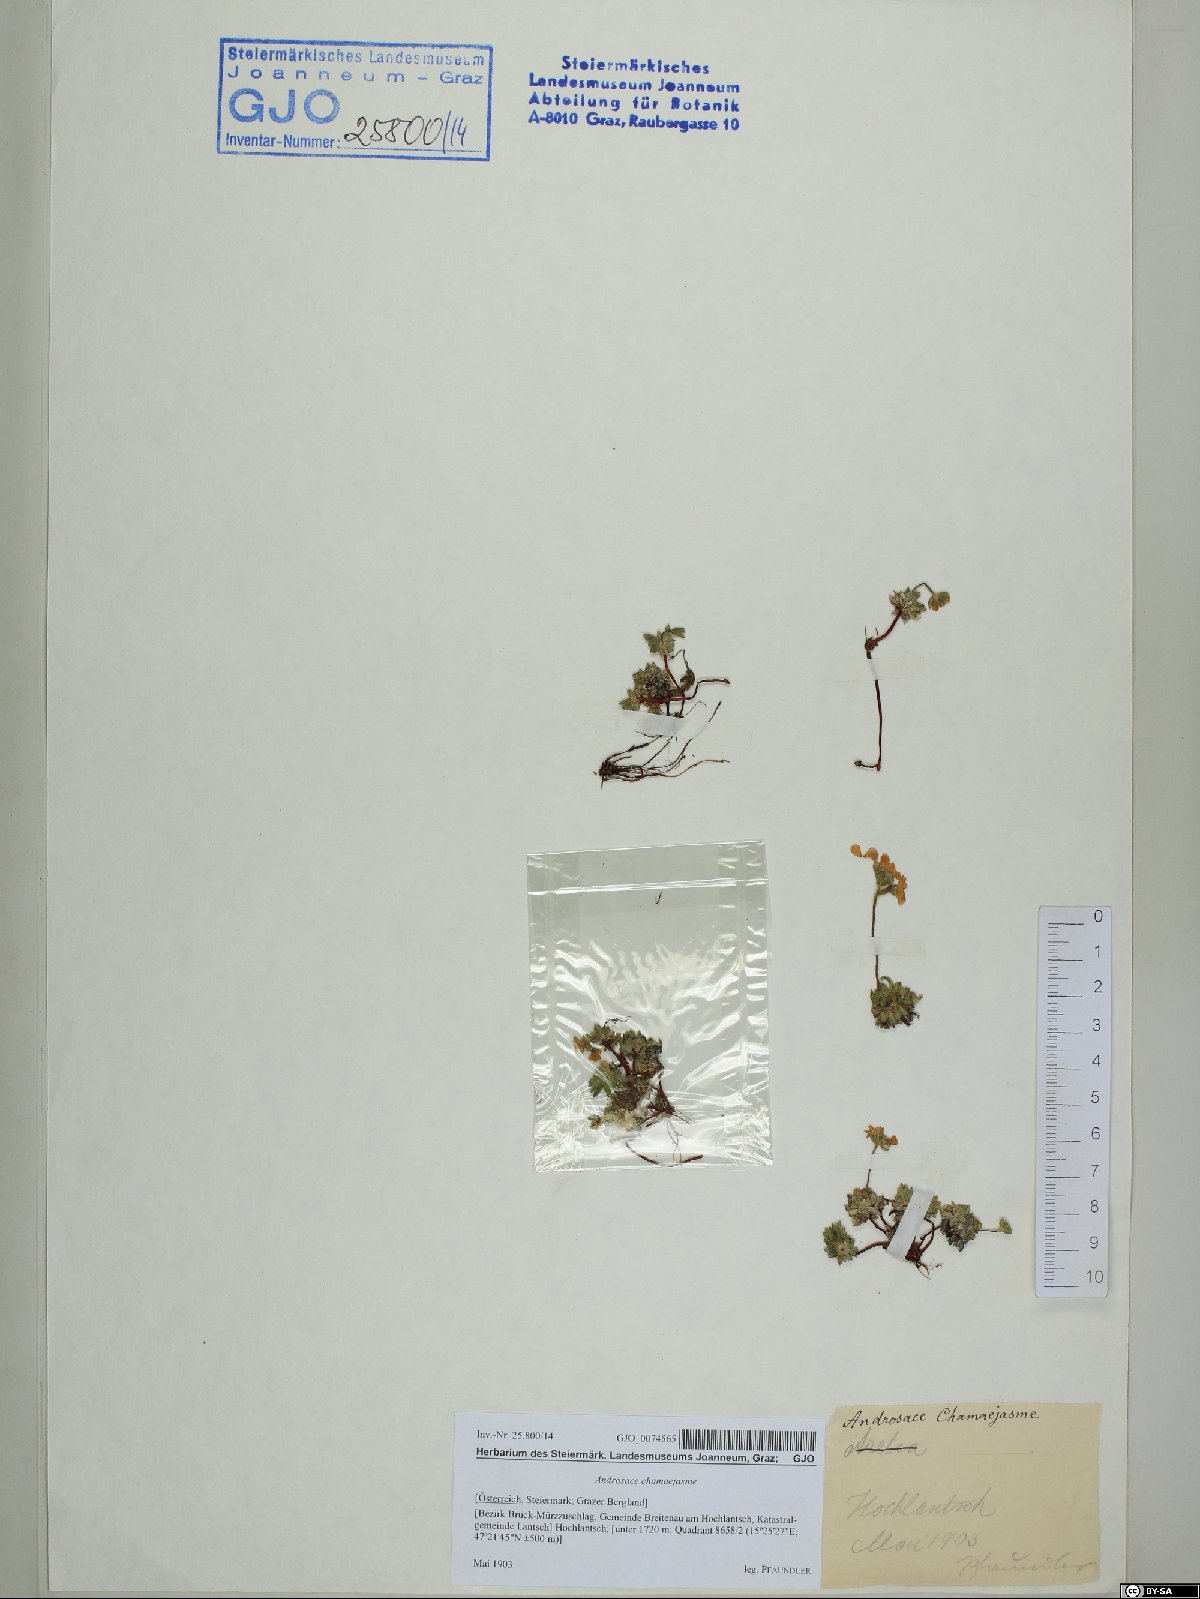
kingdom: Plantae
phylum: Tracheophyta
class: Magnoliopsida
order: Ericales
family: Primulaceae
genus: Androsace
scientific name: Androsace chamaejasme
